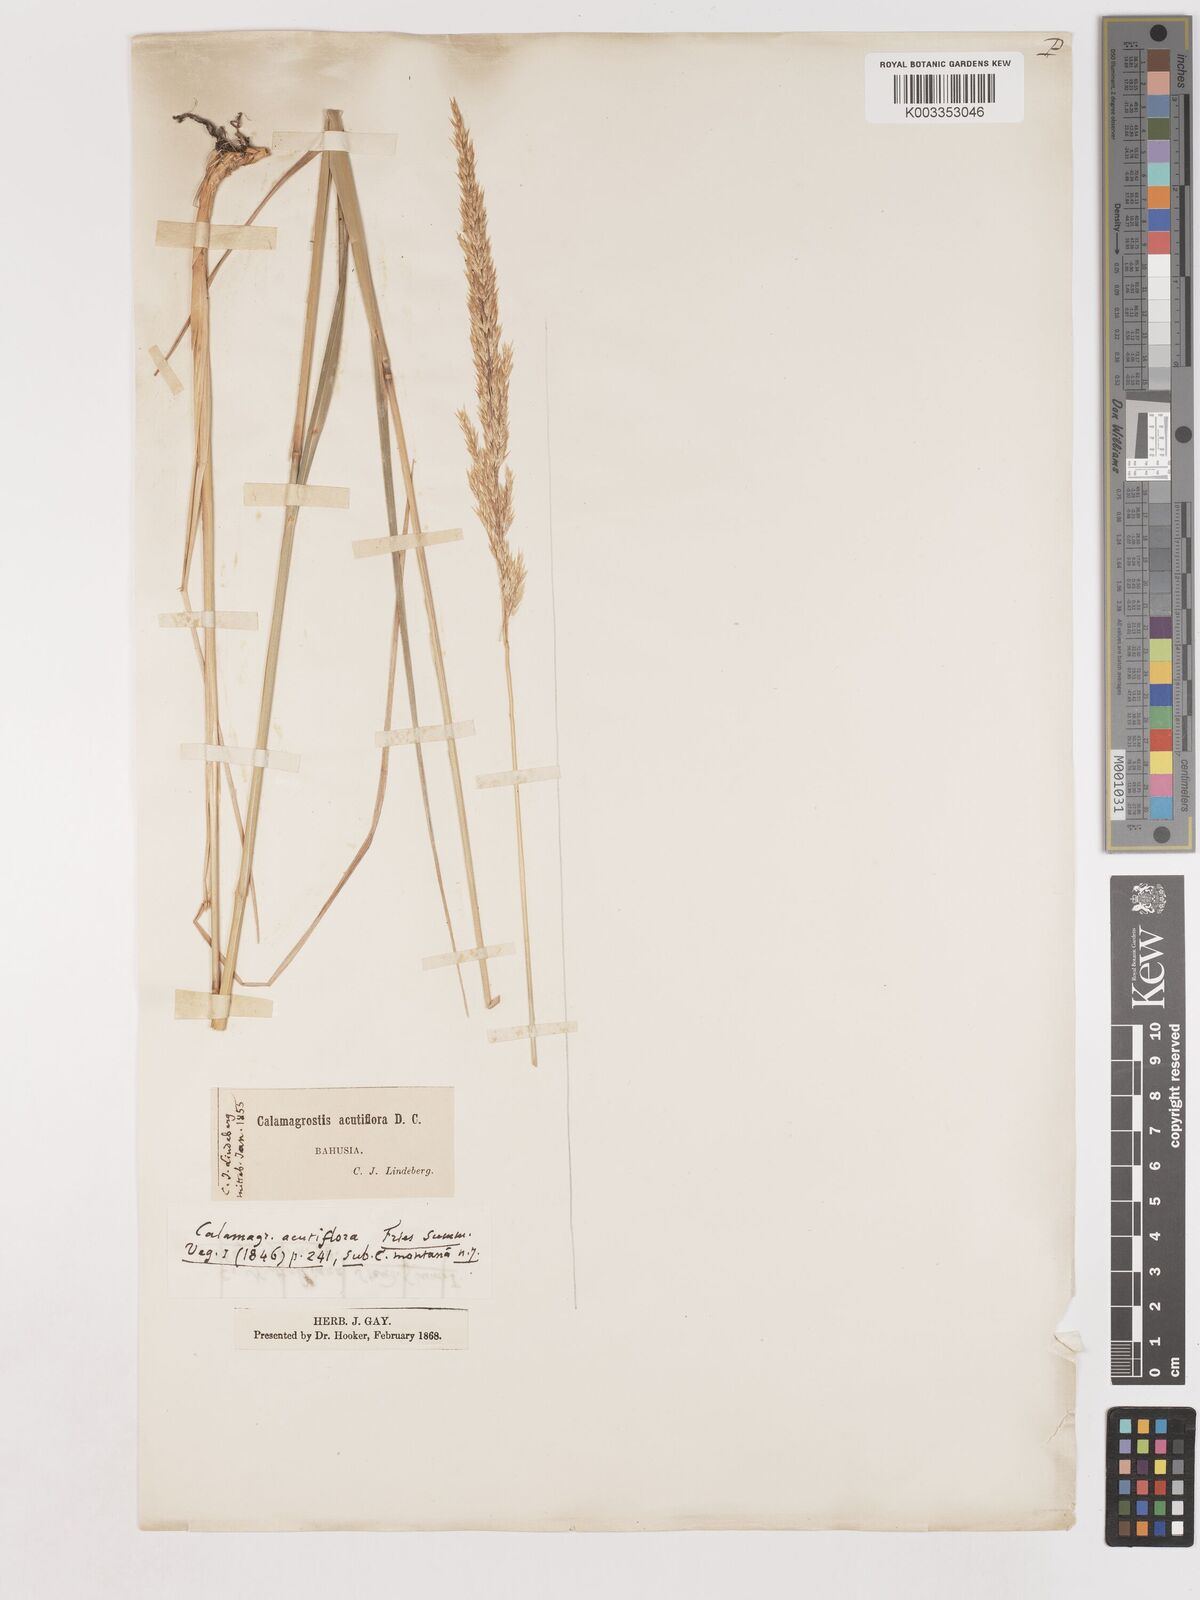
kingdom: Plantae
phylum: Tracheophyta
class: Liliopsida
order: Poales
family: Poaceae
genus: Calamagrostis
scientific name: Calamagrostis epigejos
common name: Wood small-reed
